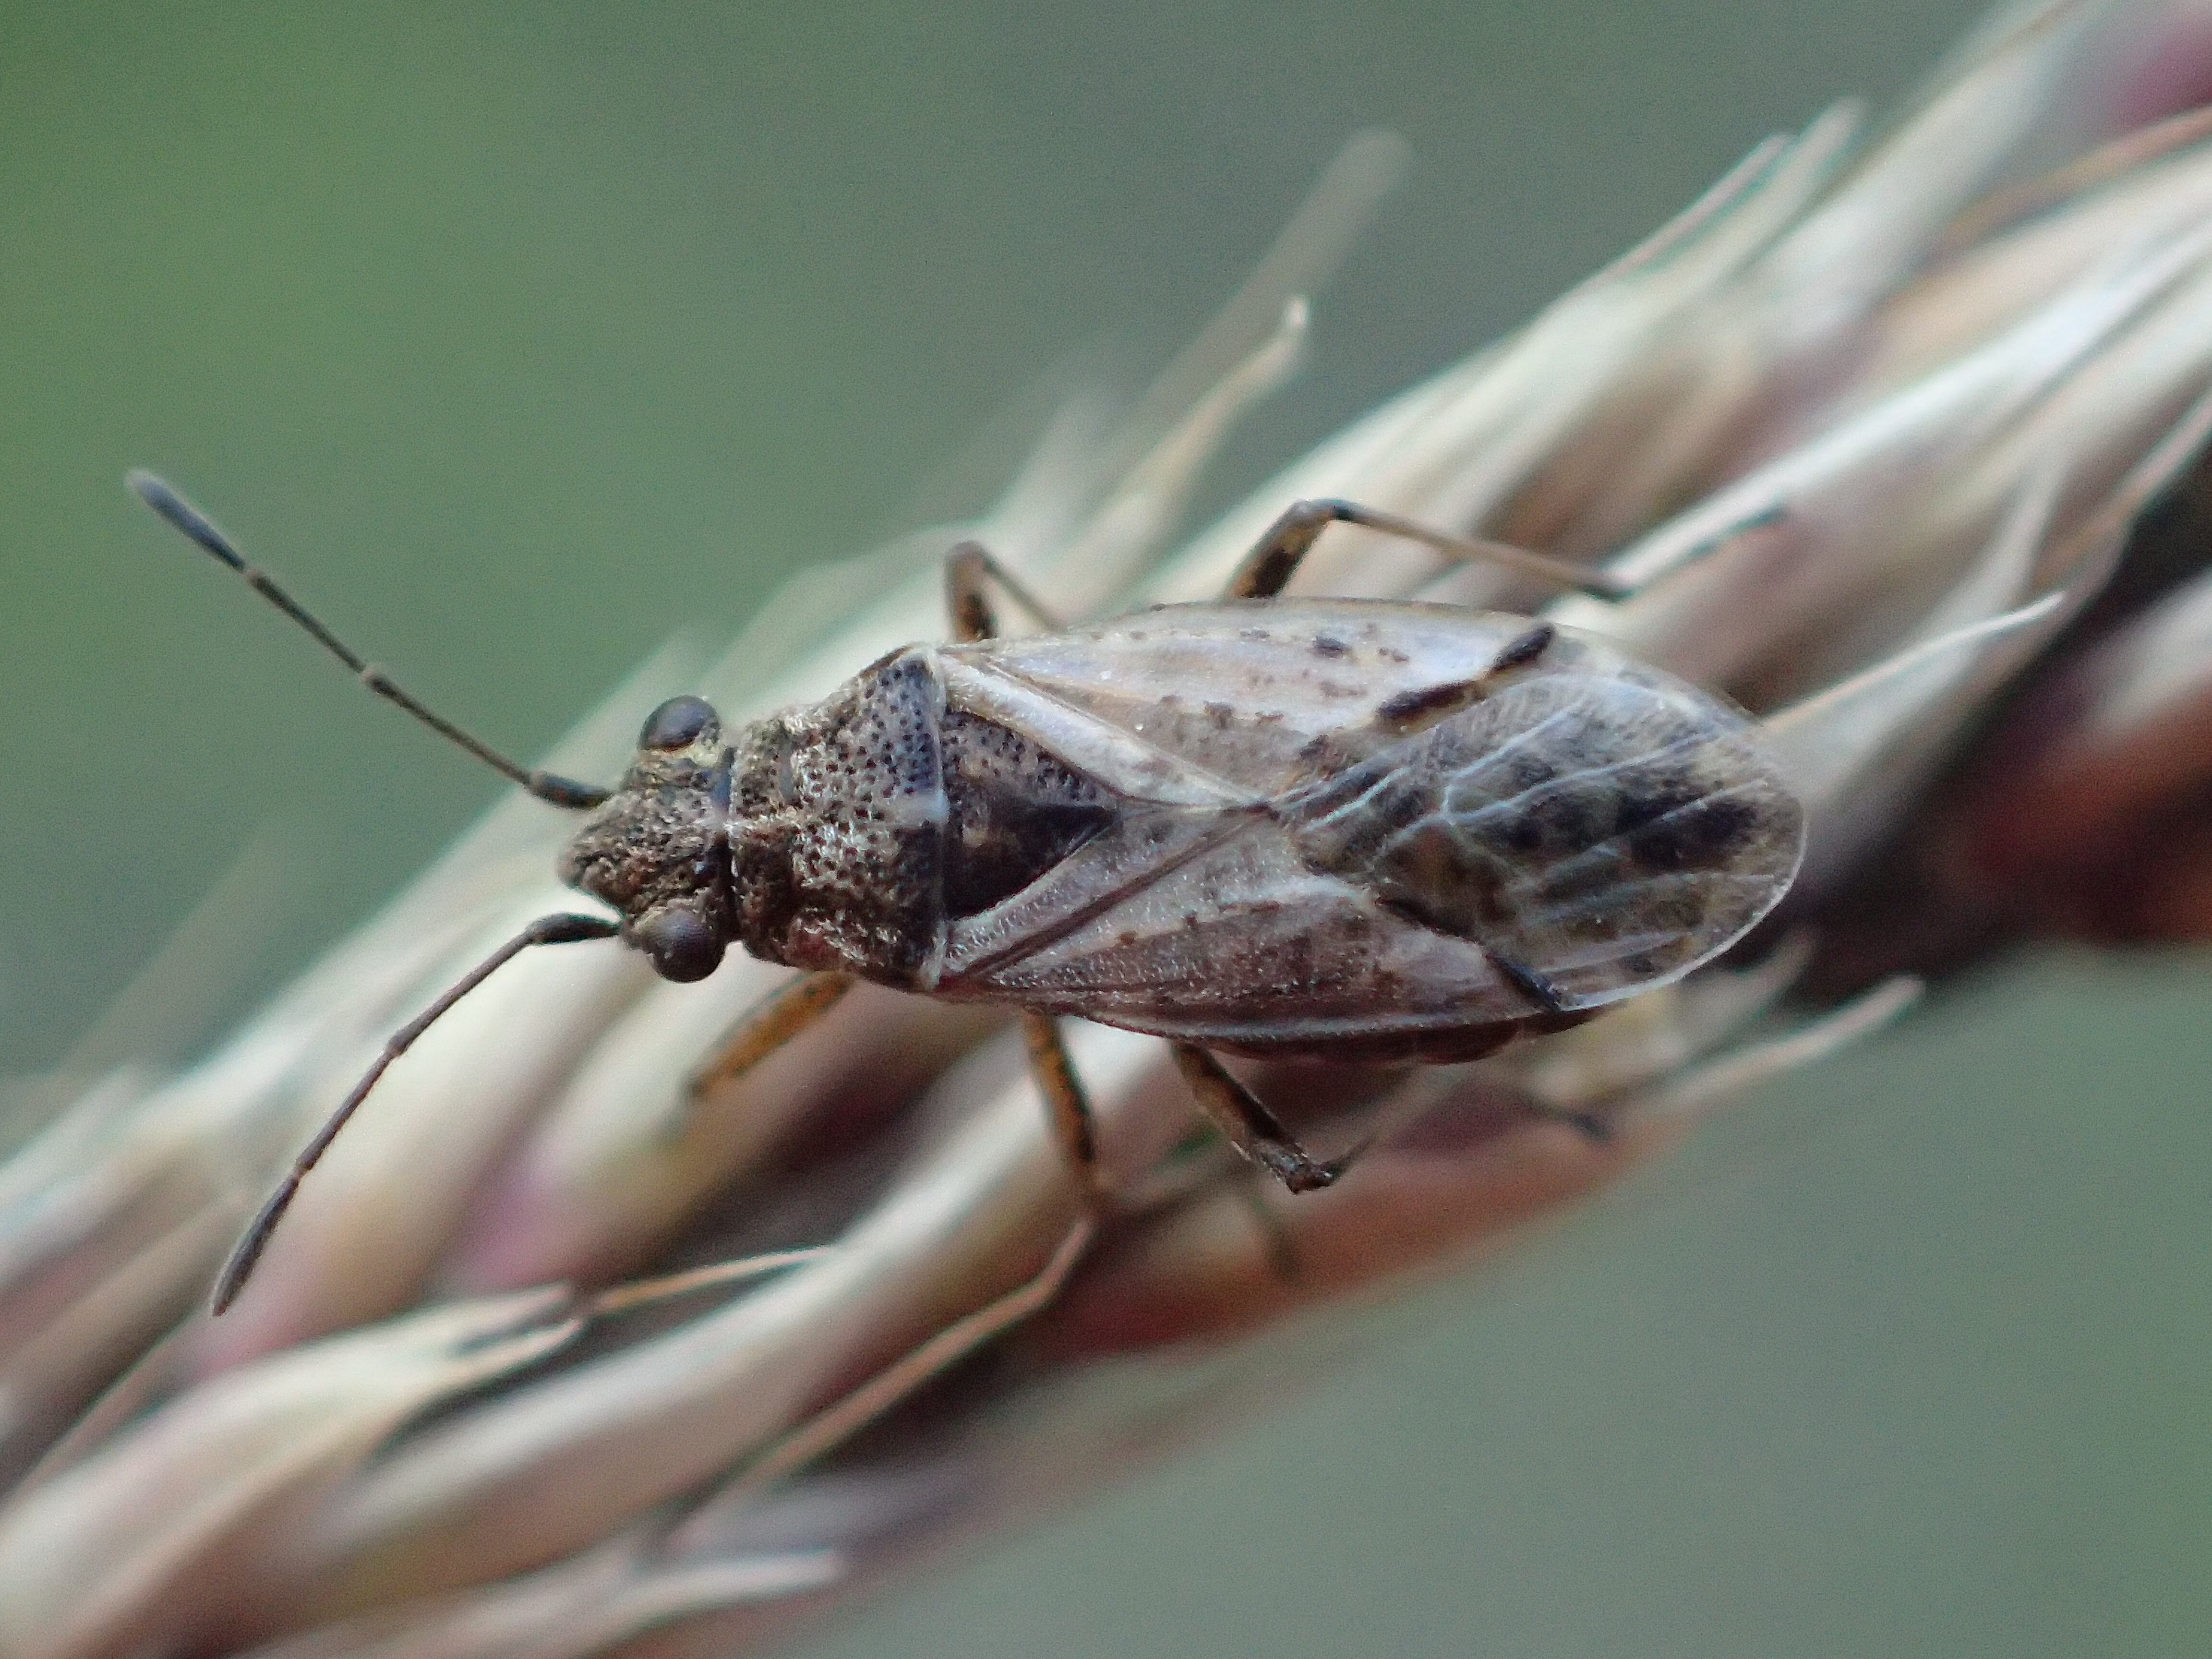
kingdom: Animalia
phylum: Arthropoda
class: Insecta
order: Hemiptera
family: Lygaeidae
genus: Nysius
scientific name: Nysius thymi
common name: Lygaeid bug
